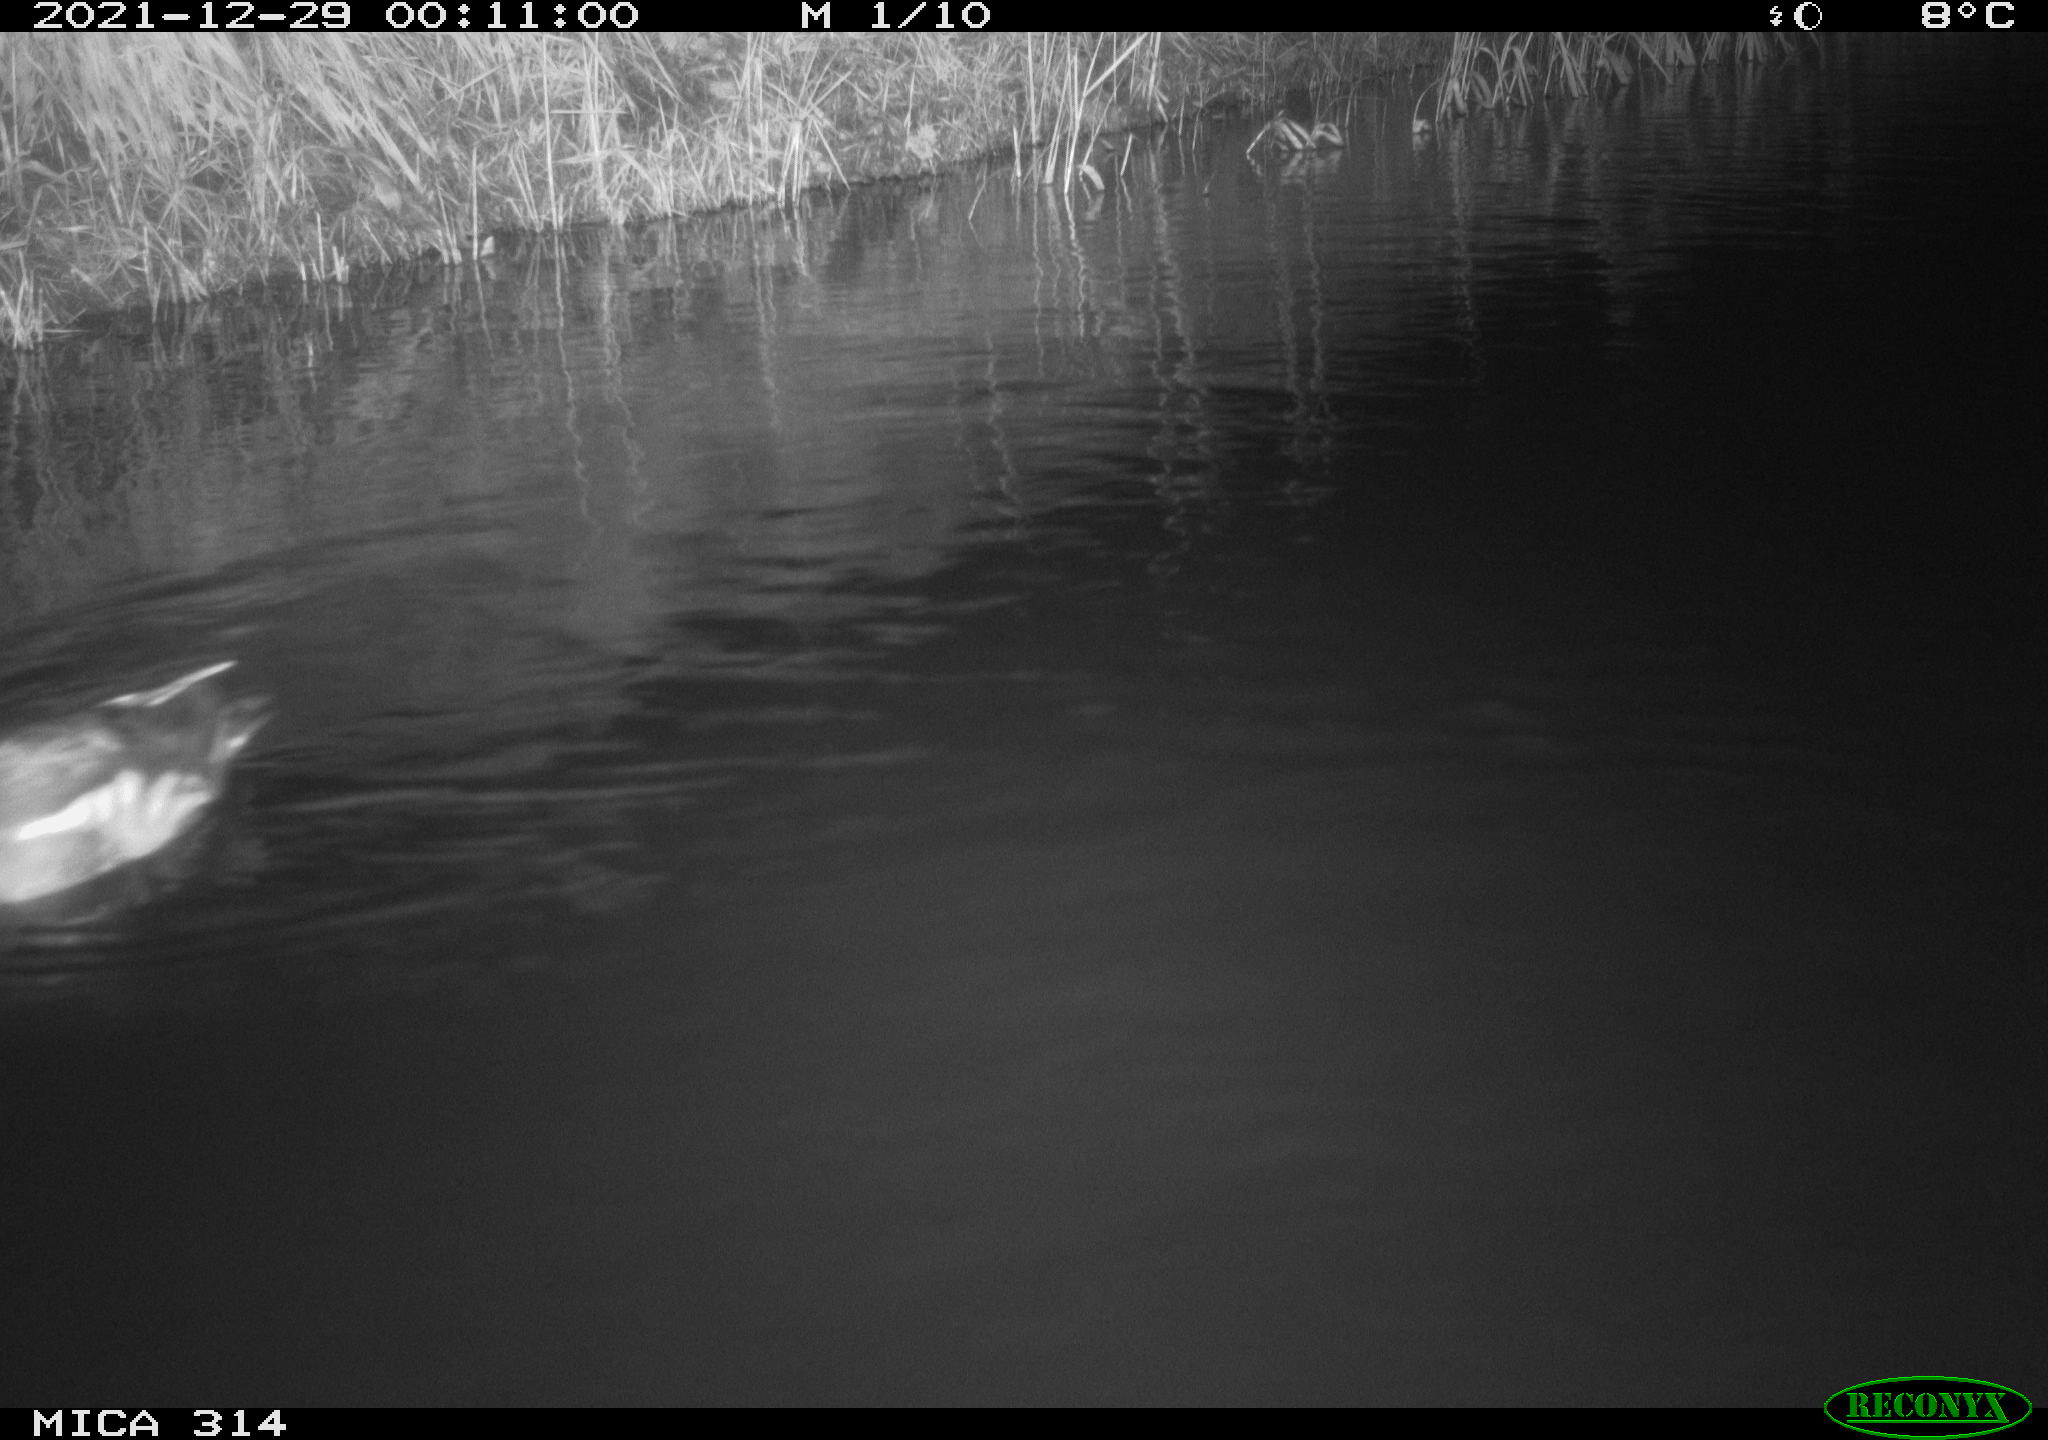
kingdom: Animalia
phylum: Chordata
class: Aves
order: Gruiformes
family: Rallidae
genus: Gallinula
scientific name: Gallinula chloropus
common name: Common moorhen
